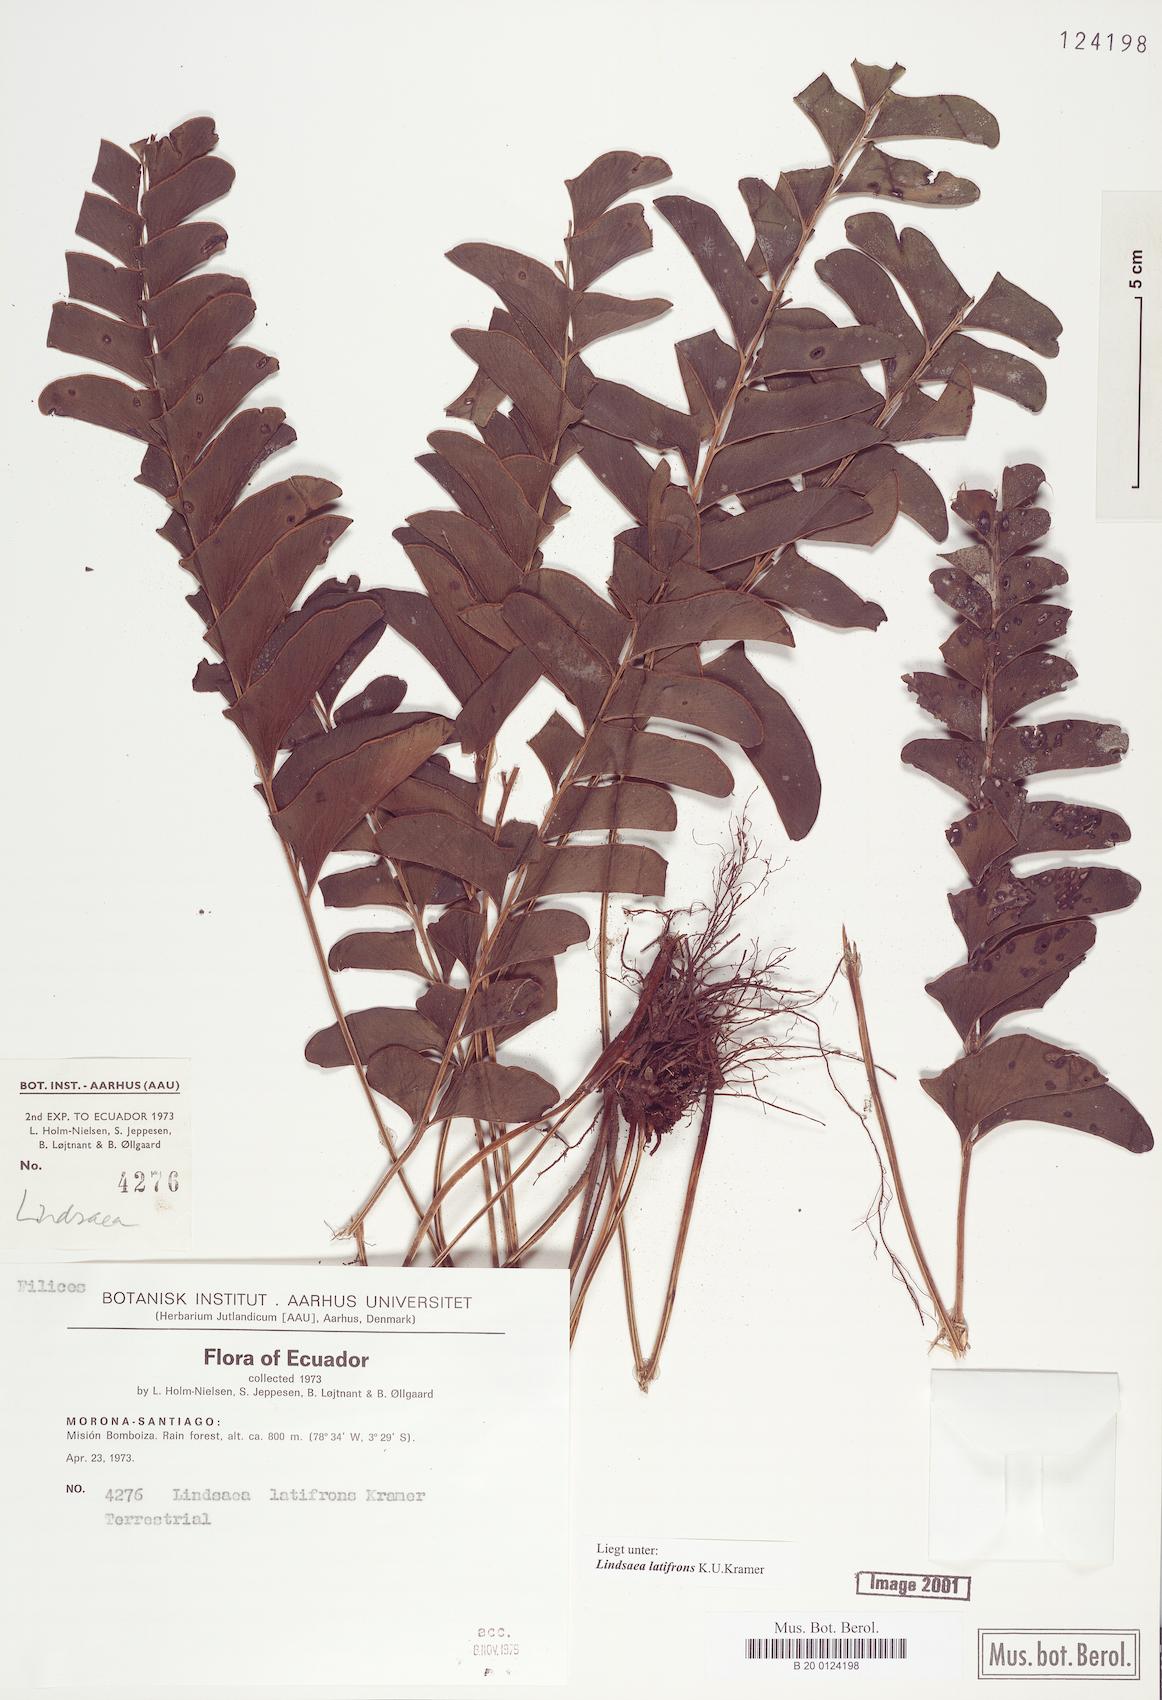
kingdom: Plantae
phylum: Tracheophyta
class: Polypodiopsida
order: Polypodiales
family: Lindsaeaceae
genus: Lindsaea
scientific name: Lindsaea latifrons
